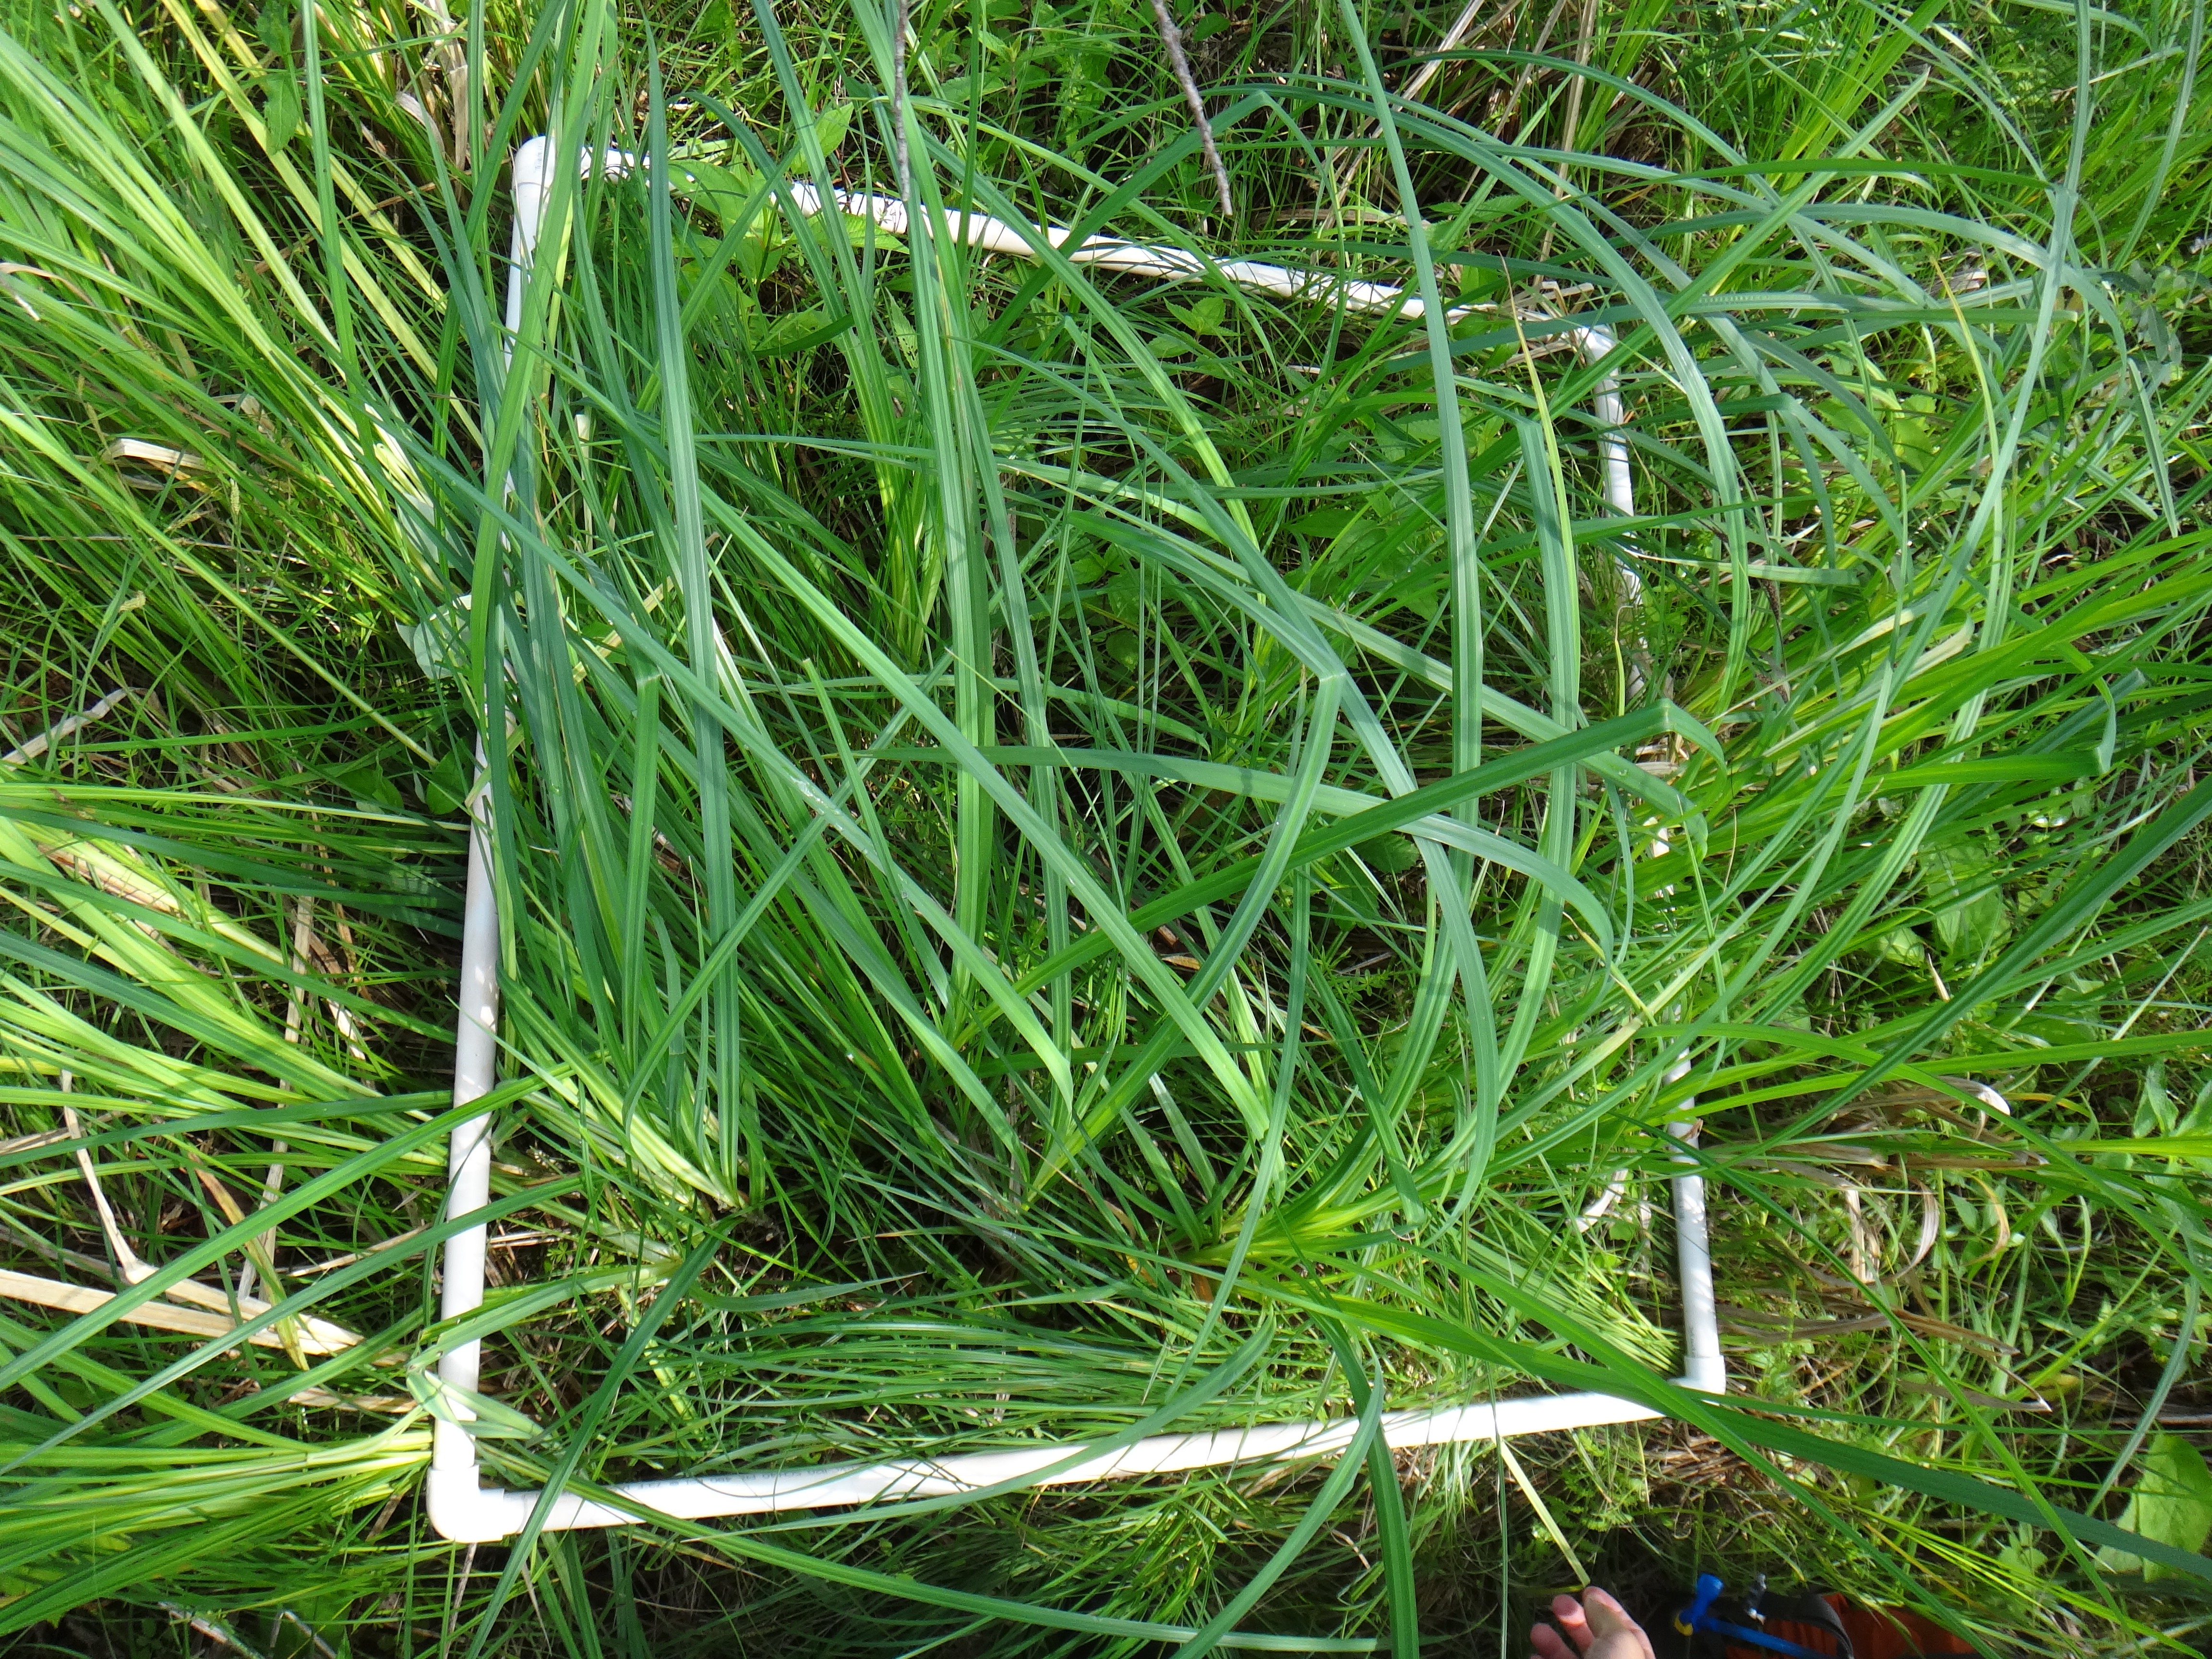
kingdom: Plantae
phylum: Tracheophyta
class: Magnoliopsida
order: Rosales
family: Urticaceae
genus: Boehmeria
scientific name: Boehmeria cylindrica
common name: Bog-hemp
